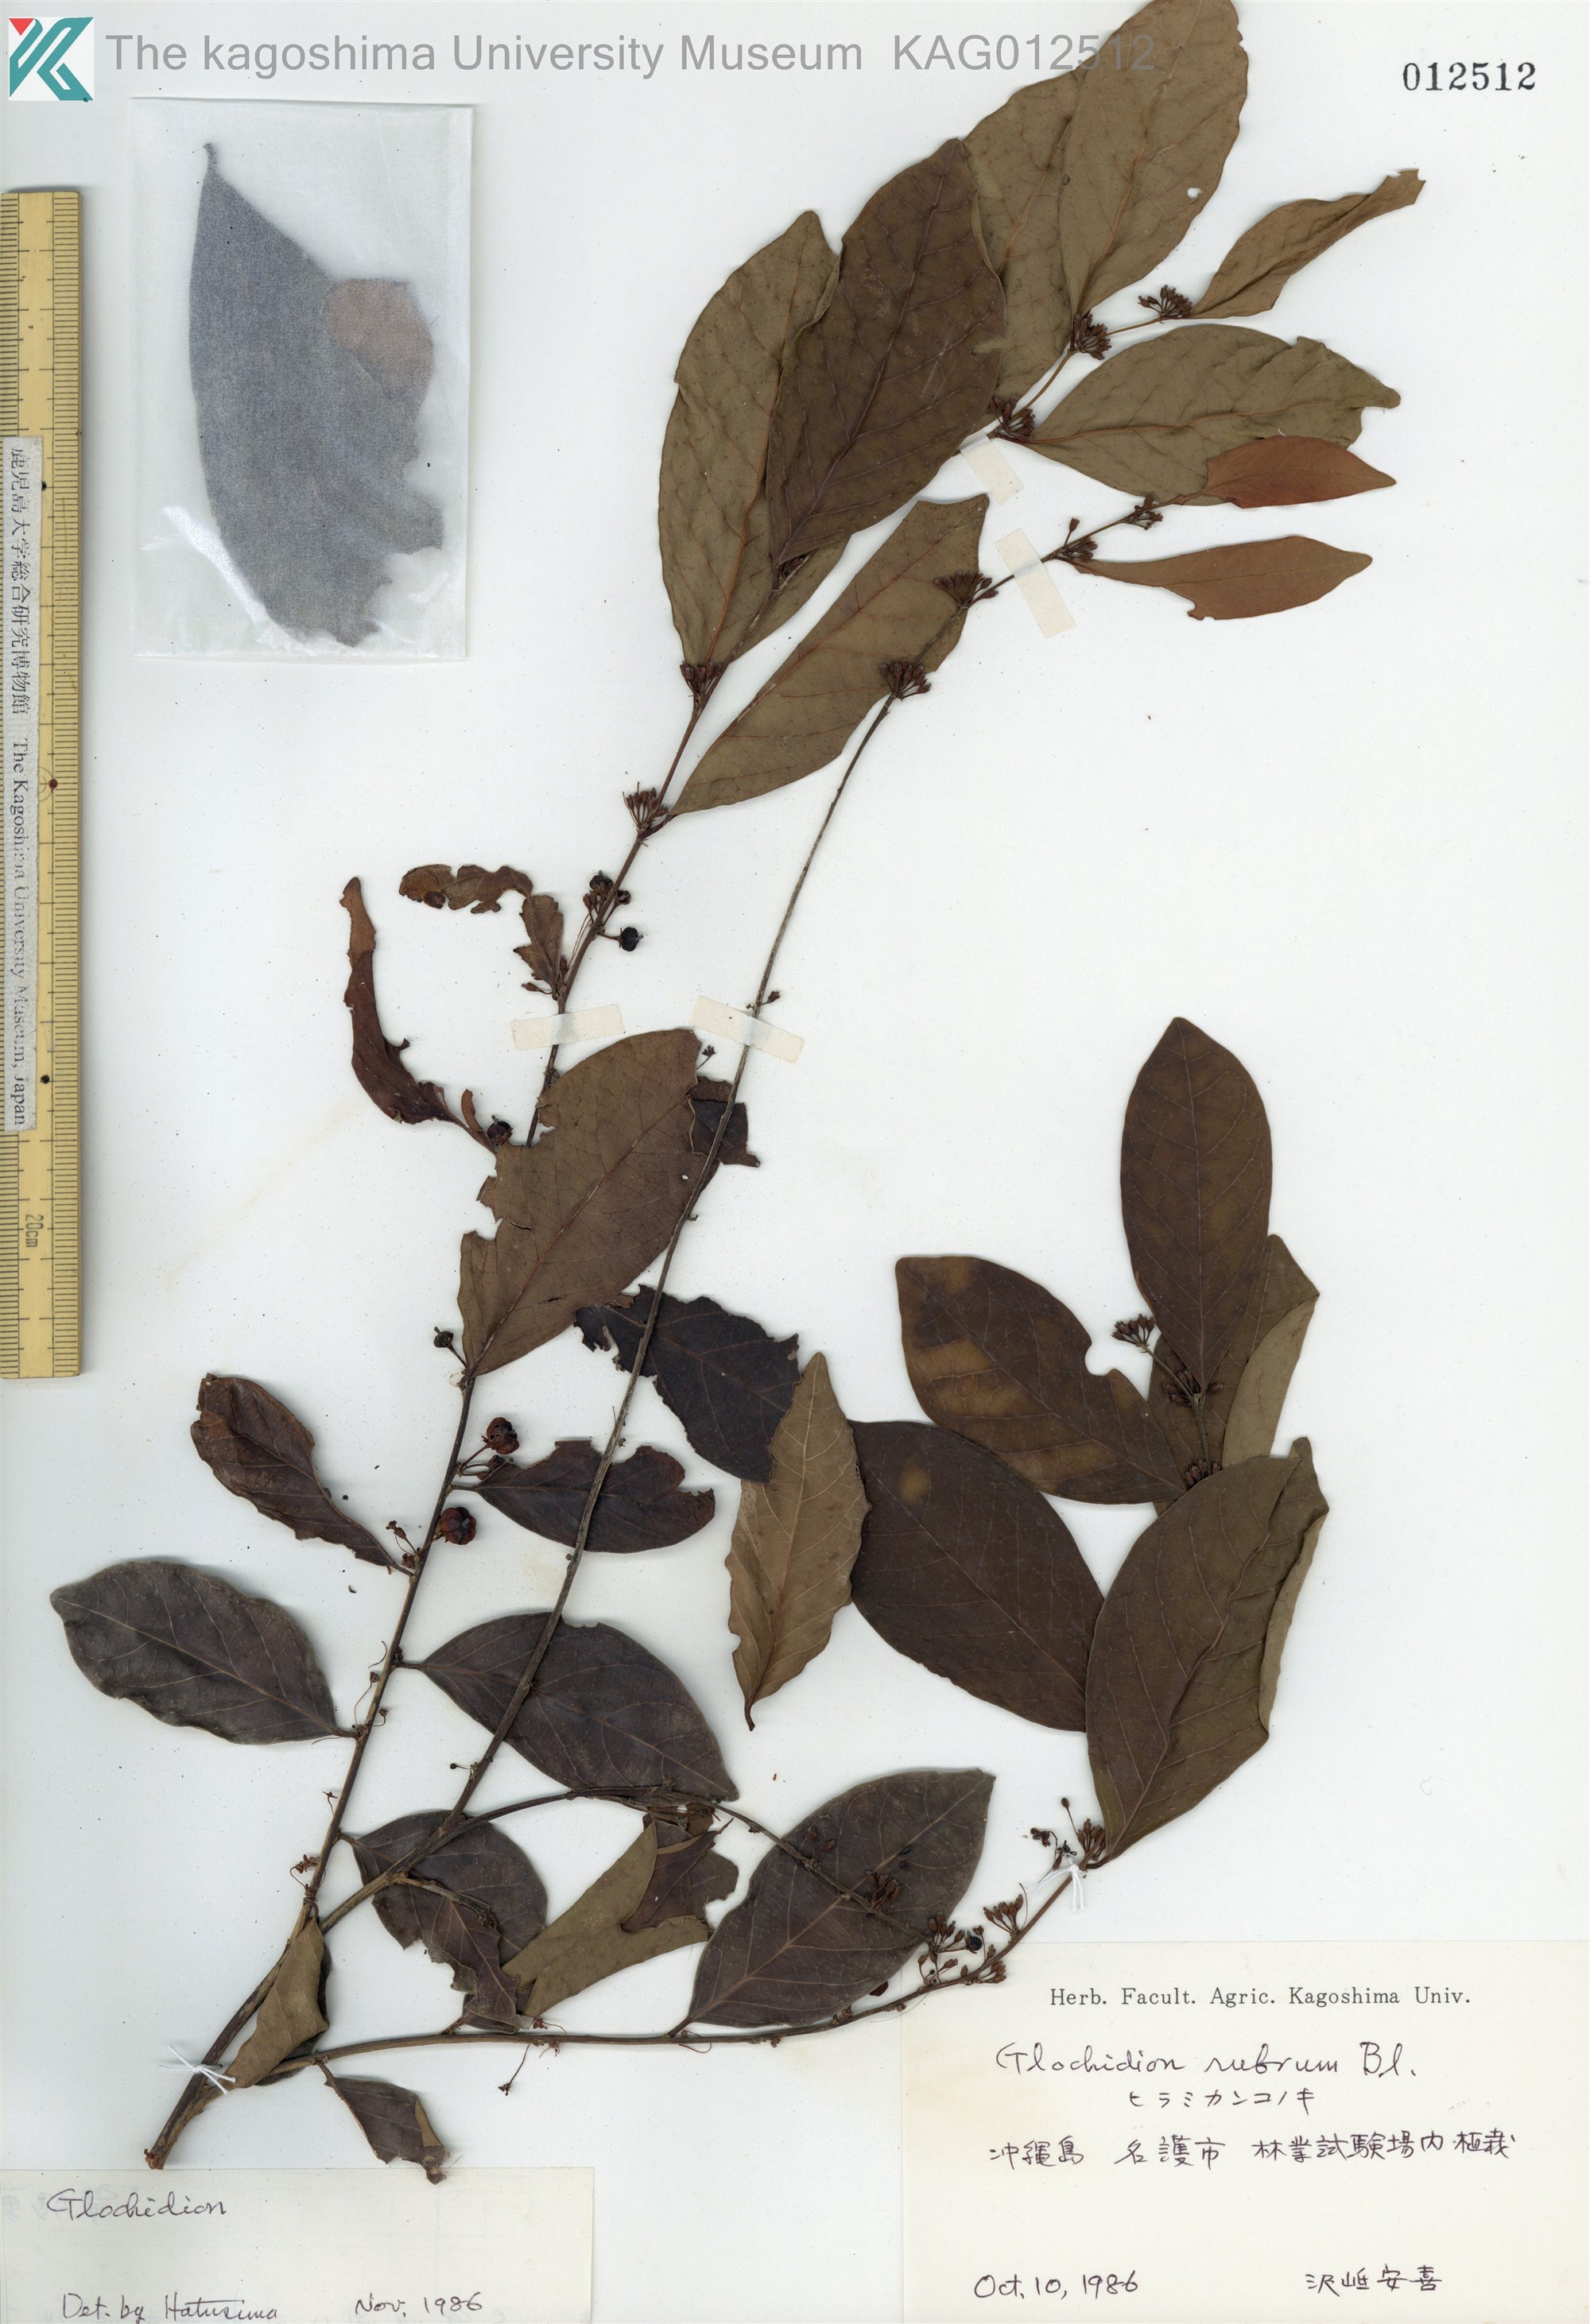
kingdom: Plantae
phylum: Tracheophyta
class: Magnoliopsida
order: Malpighiales
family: Phyllanthaceae
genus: Glochidion
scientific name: Glochidion zeylanicum
